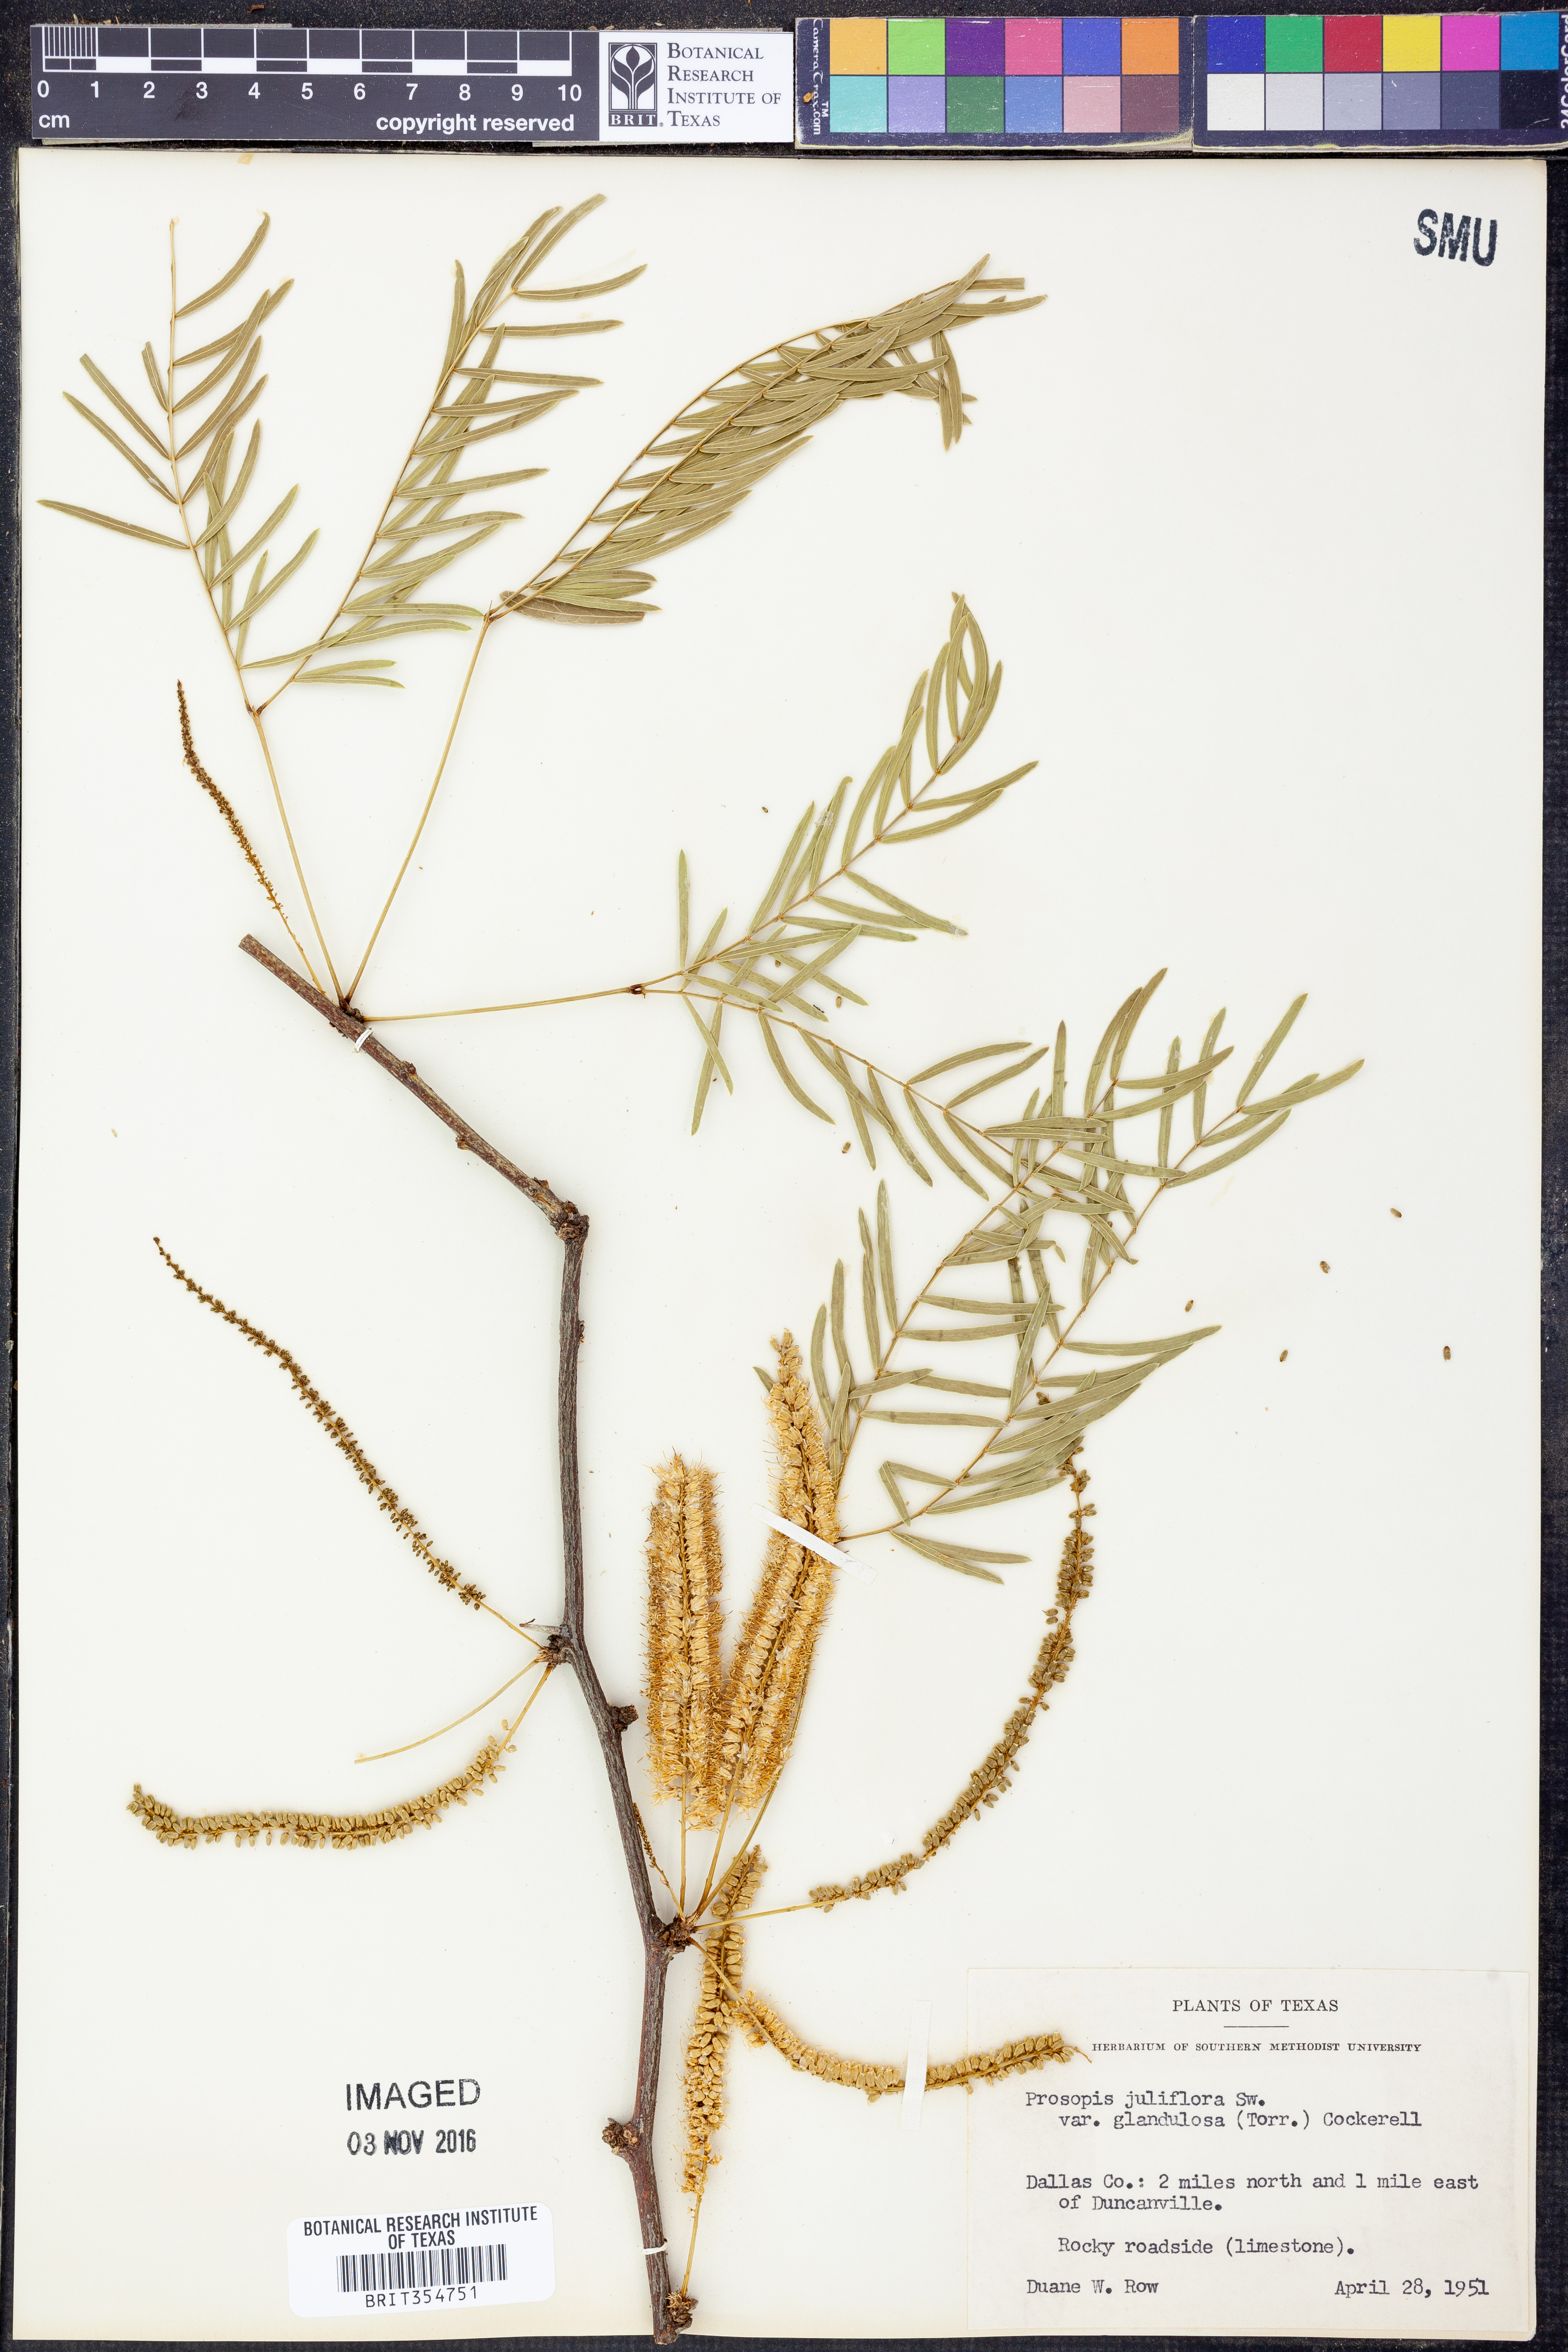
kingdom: Plantae
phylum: Tracheophyta
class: Magnoliopsida
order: Fabales
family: Fabaceae
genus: Prosopis
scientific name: Prosopis glandulosa
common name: Honey mesquite
